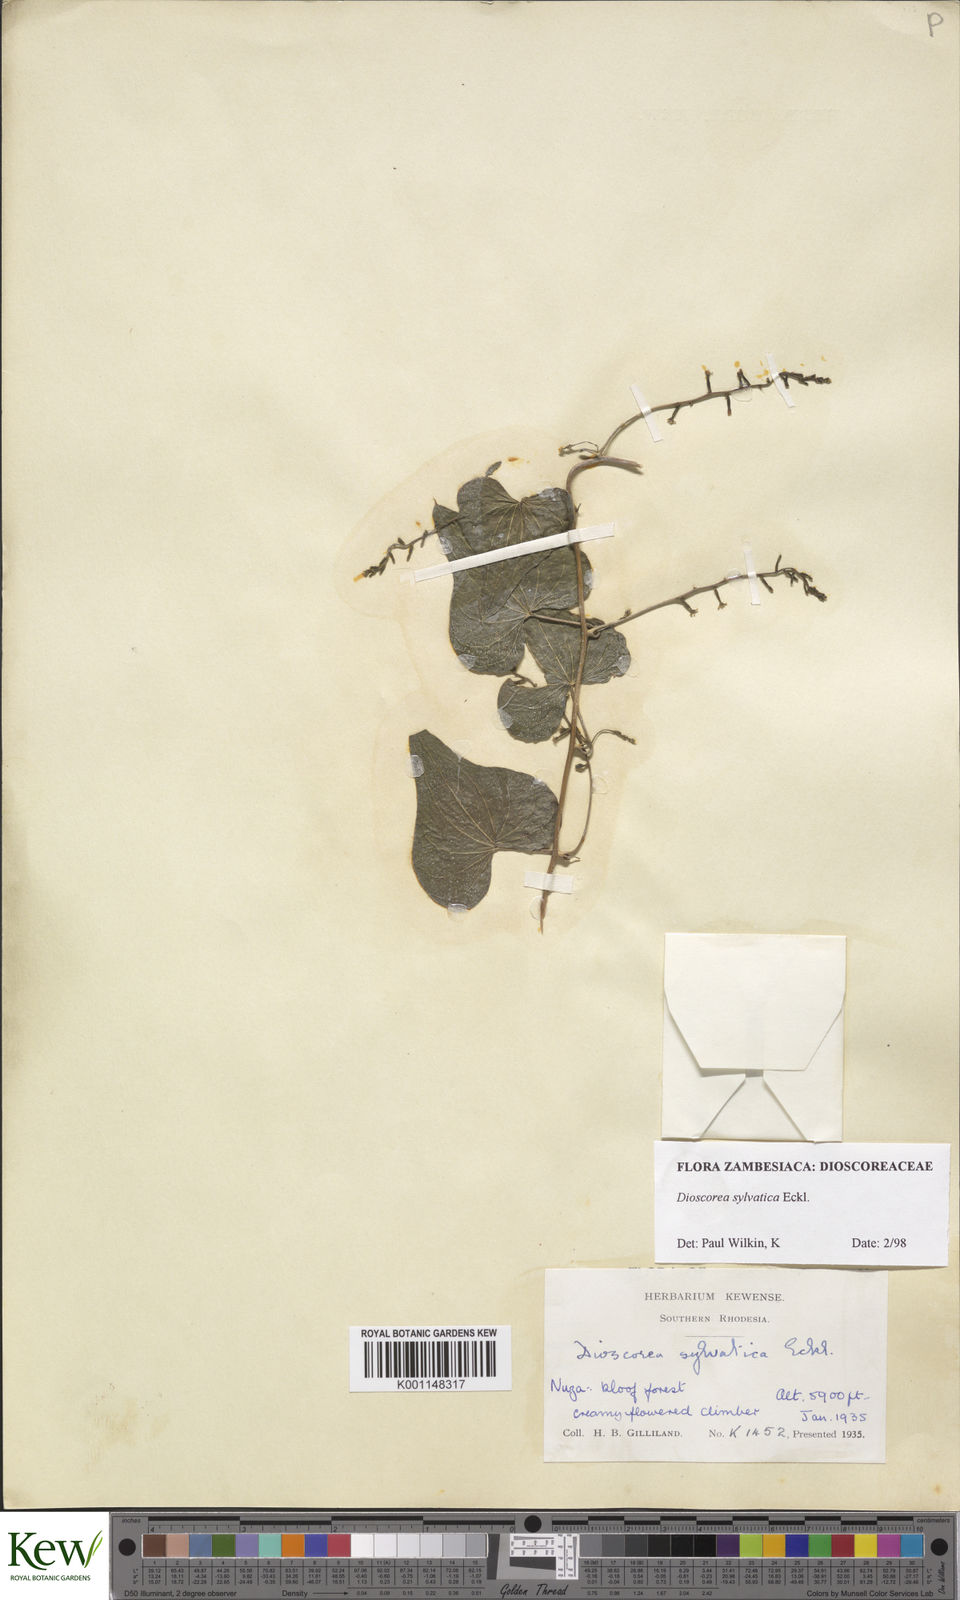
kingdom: Plantae
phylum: Tracheophyta
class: Liliopsida
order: Dioscoreales
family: Dioscoreaceae
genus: Dioscorea
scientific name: Dioscorea sylvatica
